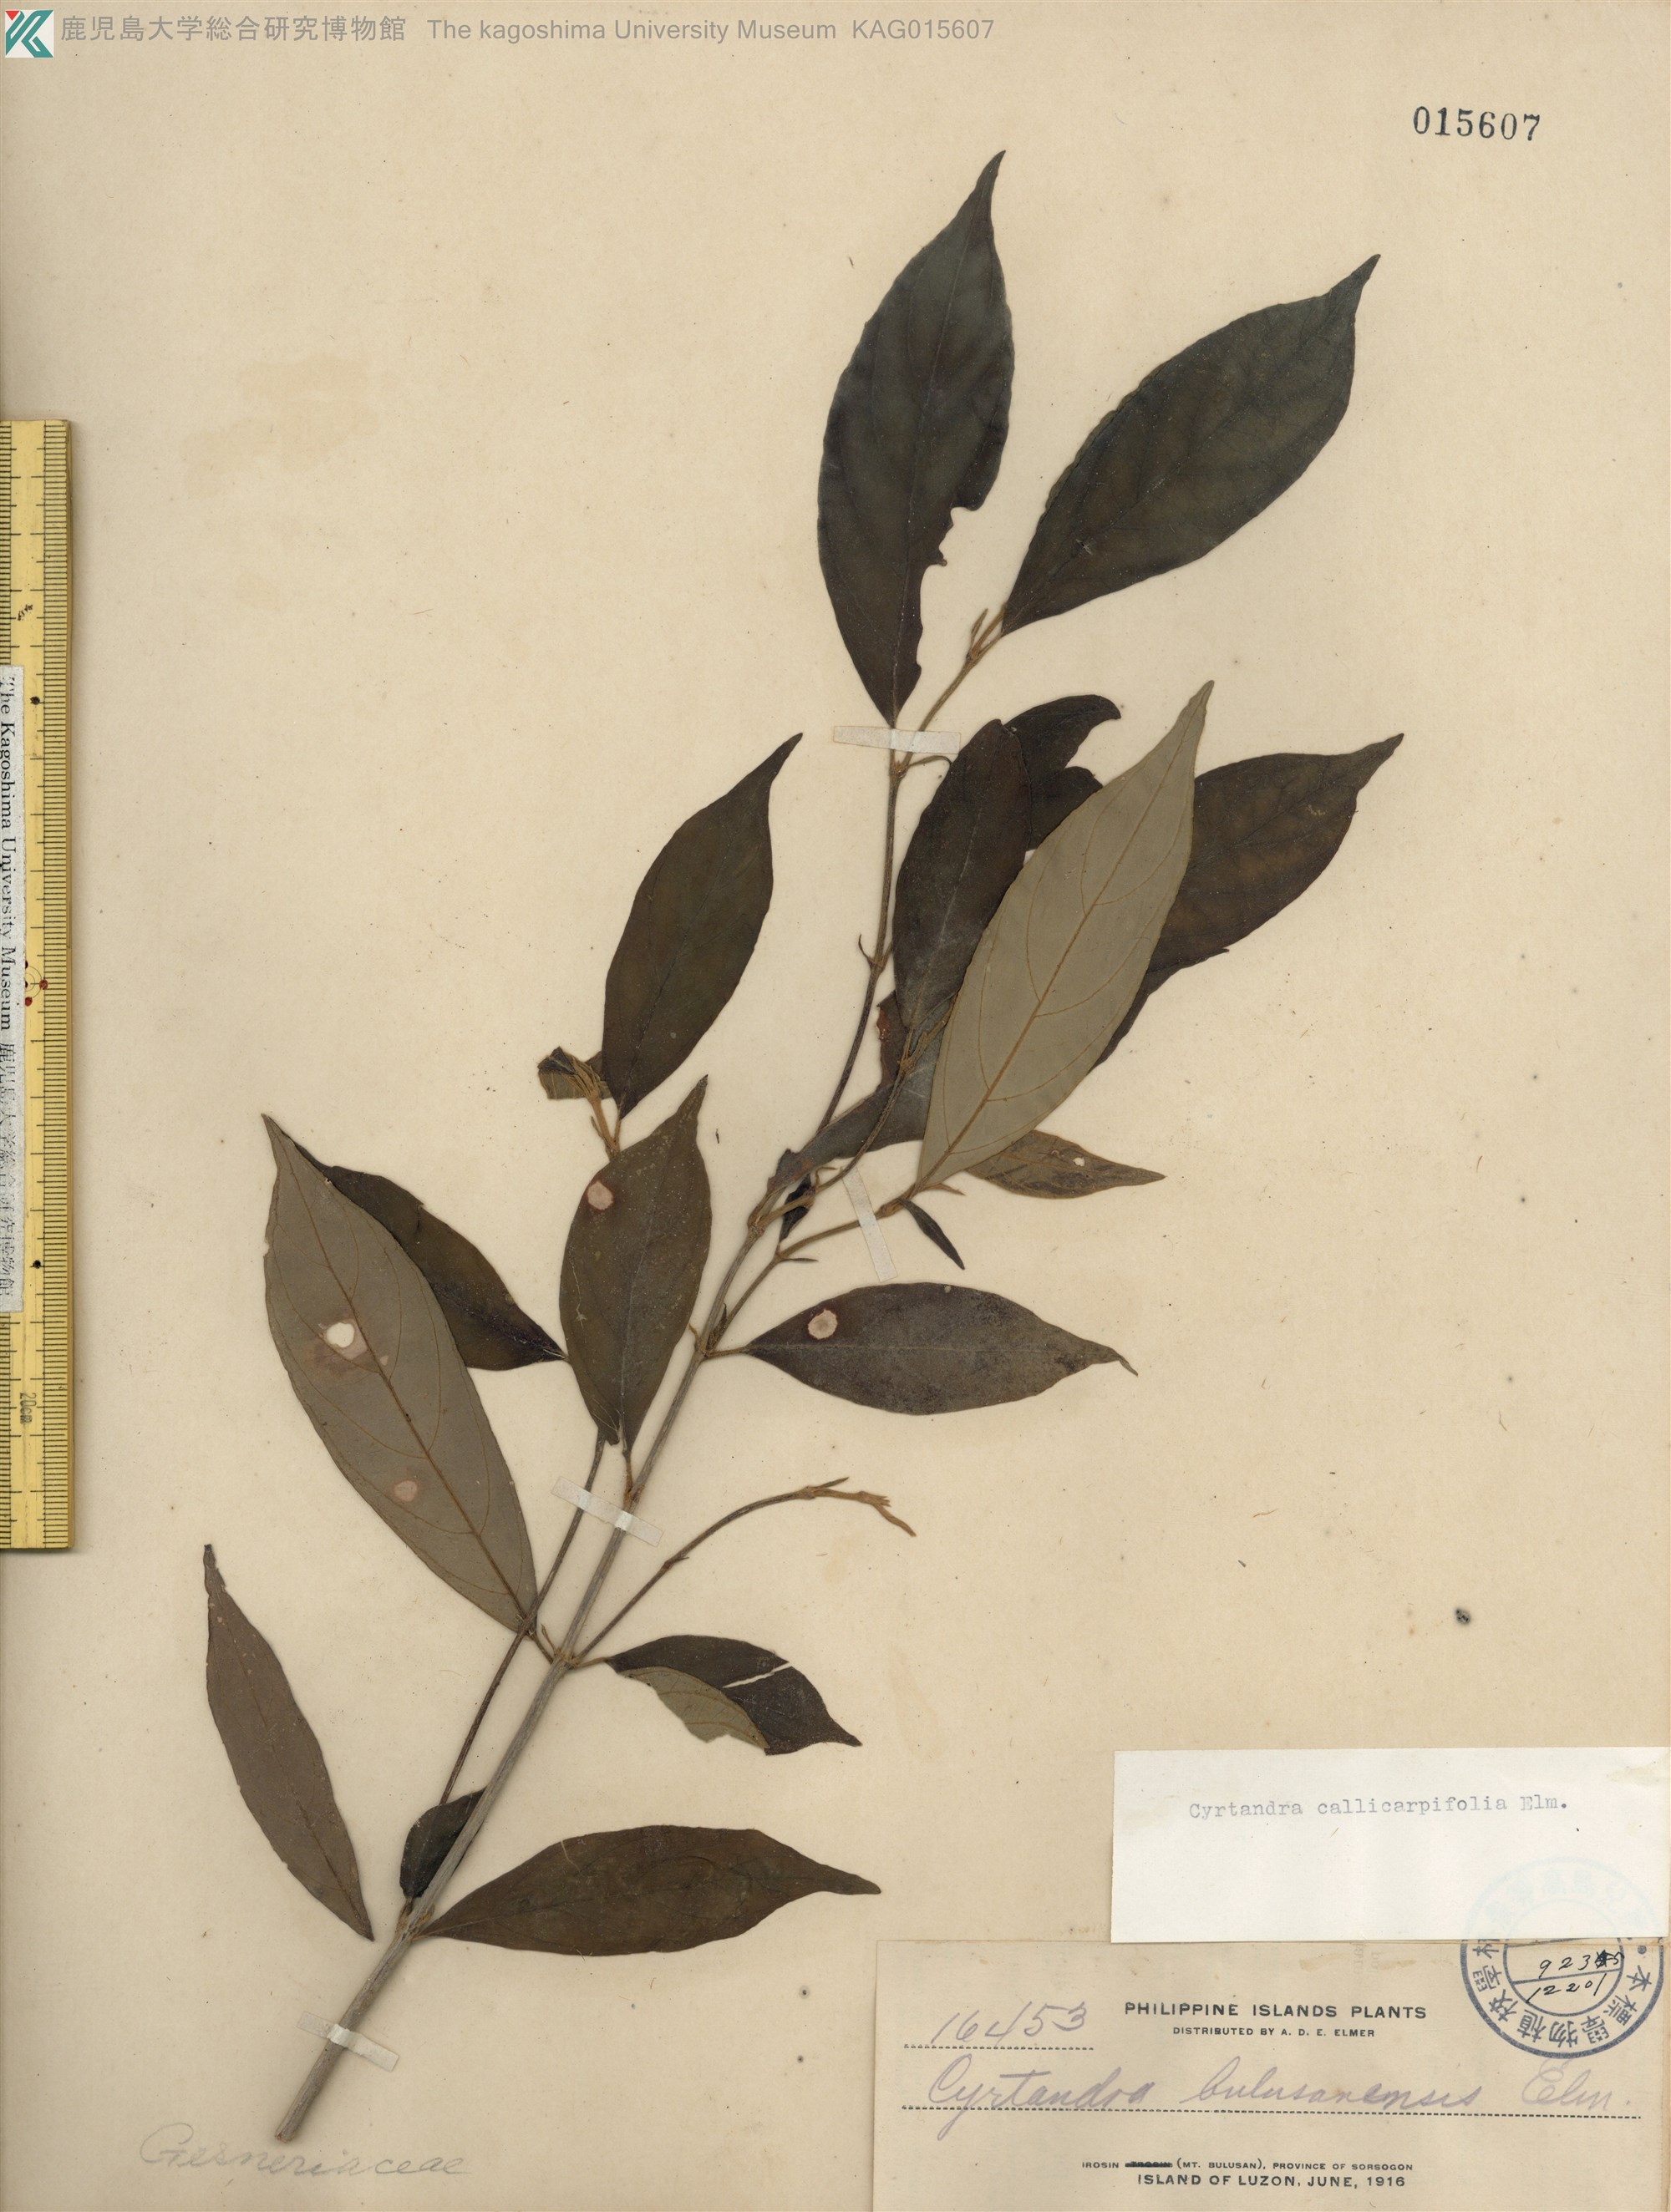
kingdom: Plantae
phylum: Tracheophyta
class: Magnoliopsida
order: Lamiales
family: Gesneriaceae
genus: Cyrtandra
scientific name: Cyrtandra callicarpifolia
